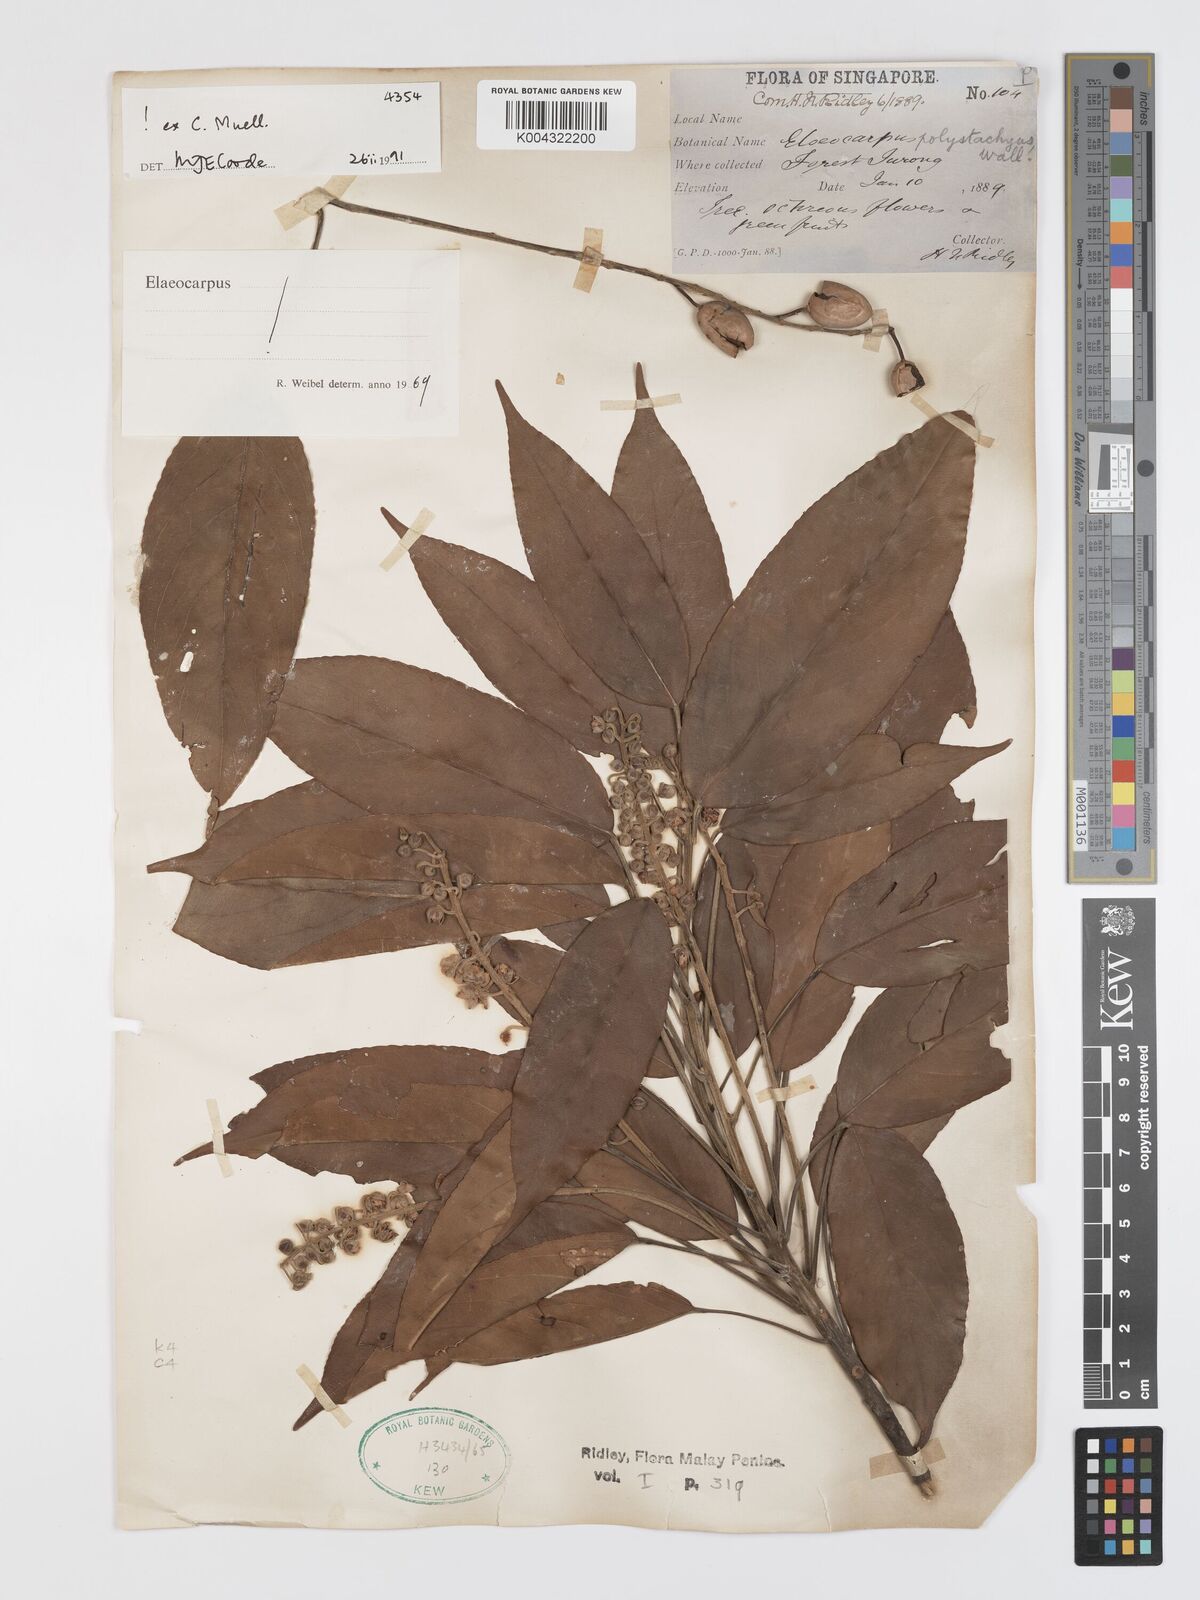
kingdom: Plantae
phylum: Tracheophyta
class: Magnoliopsida
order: Oxalidales
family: Elaeocarpaceae
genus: Elaeocarpus
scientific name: Elaeocarpus polystachyus
